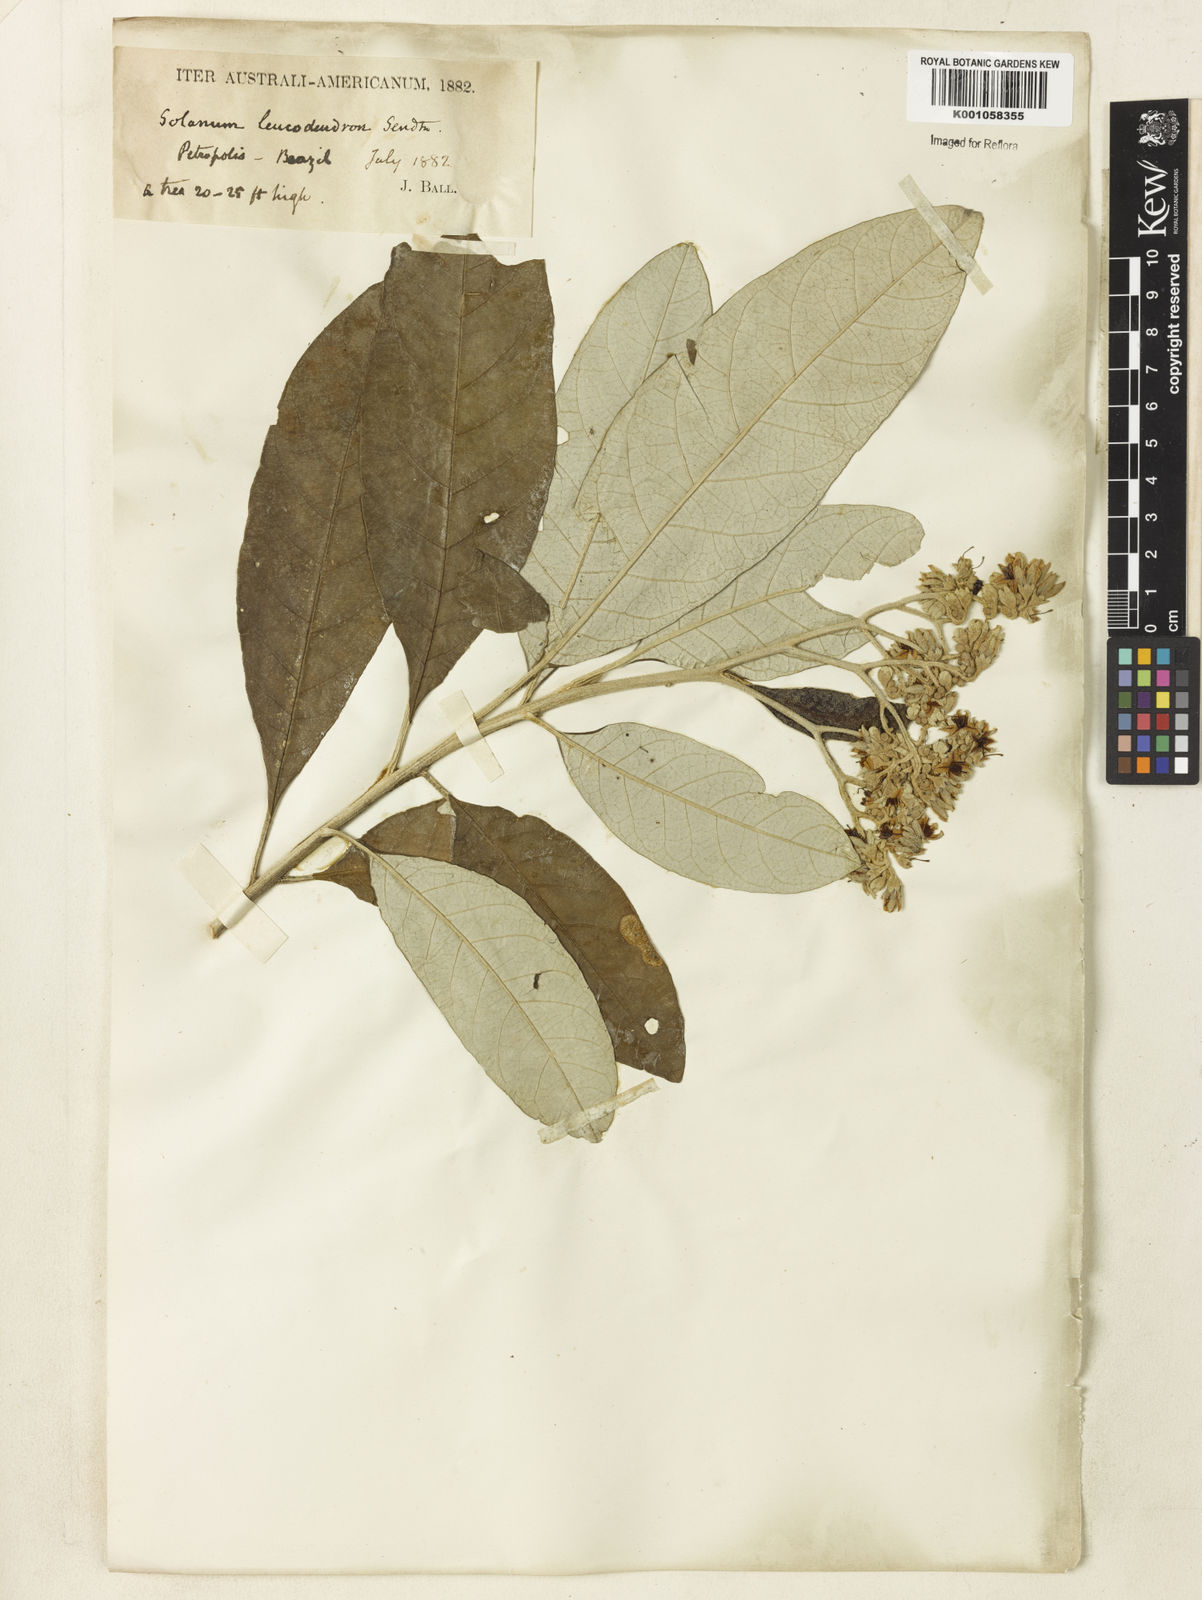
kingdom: Plantae
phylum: Tracheophyta
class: Magnoliopsida
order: Solanales
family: Solanaceae
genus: Solanum
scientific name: Solanum leucodendron
